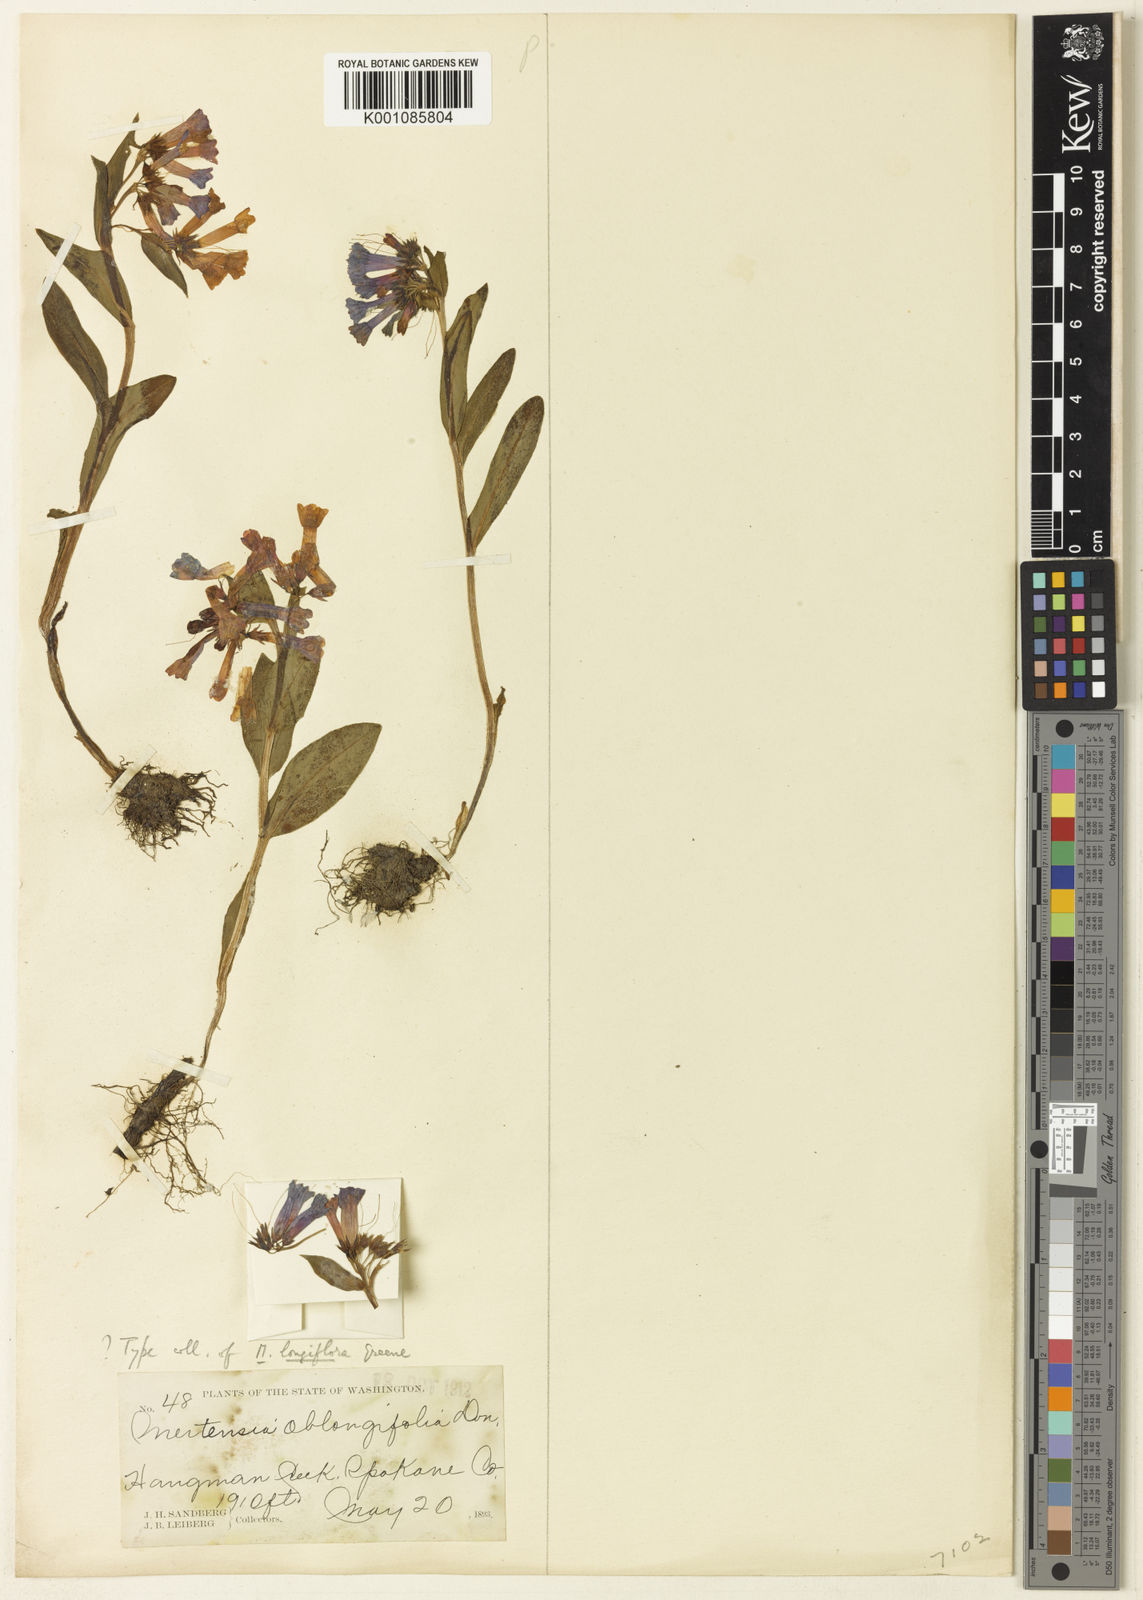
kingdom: Plantae
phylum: Tracheophyta
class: Magnoliopsida
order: Boraginales
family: Boraginaceae
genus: Mertensia
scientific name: Mertensia longiflora
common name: Large-flowered bluebells
